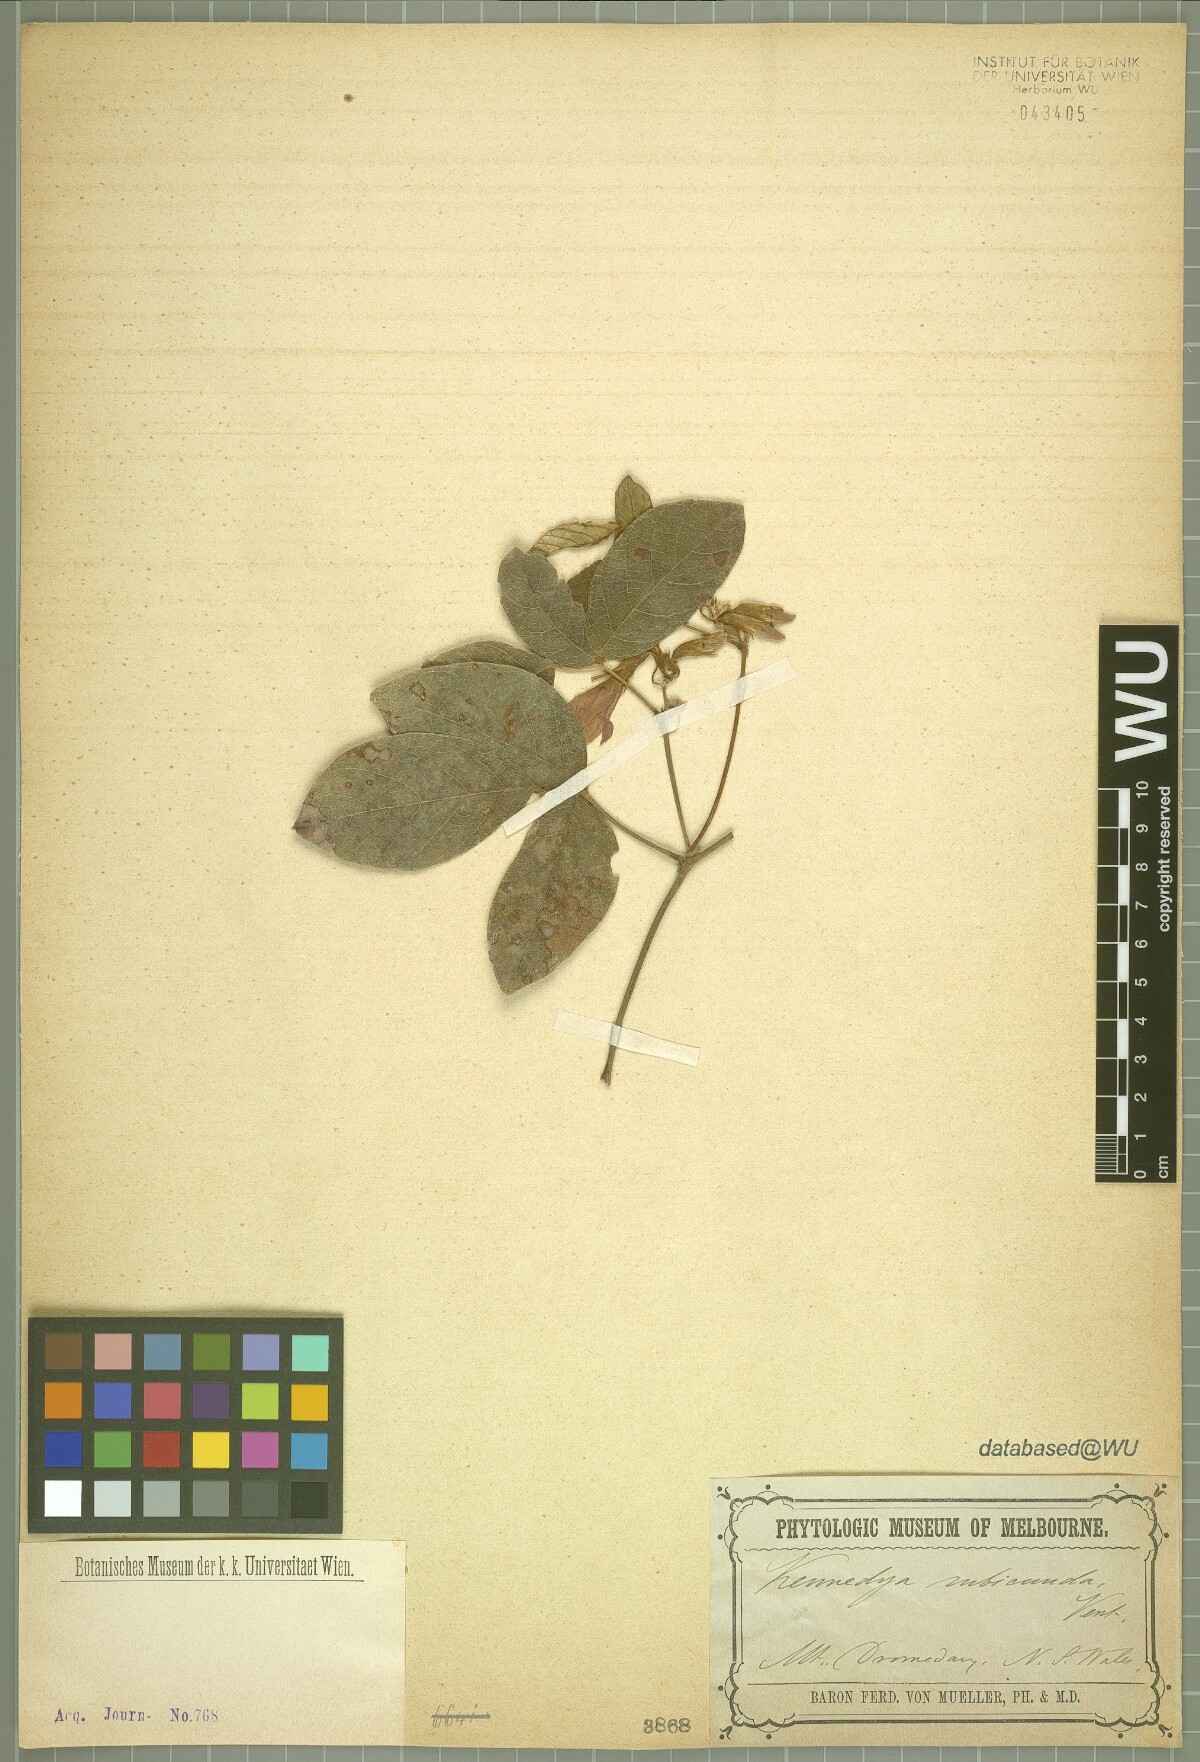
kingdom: Plantae
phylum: Tracheophyta
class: Magnoliopsida
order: Fabales
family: Fabaceae
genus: Kennedia
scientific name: Kennedia rubicunda
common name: Red kennedy-pea
